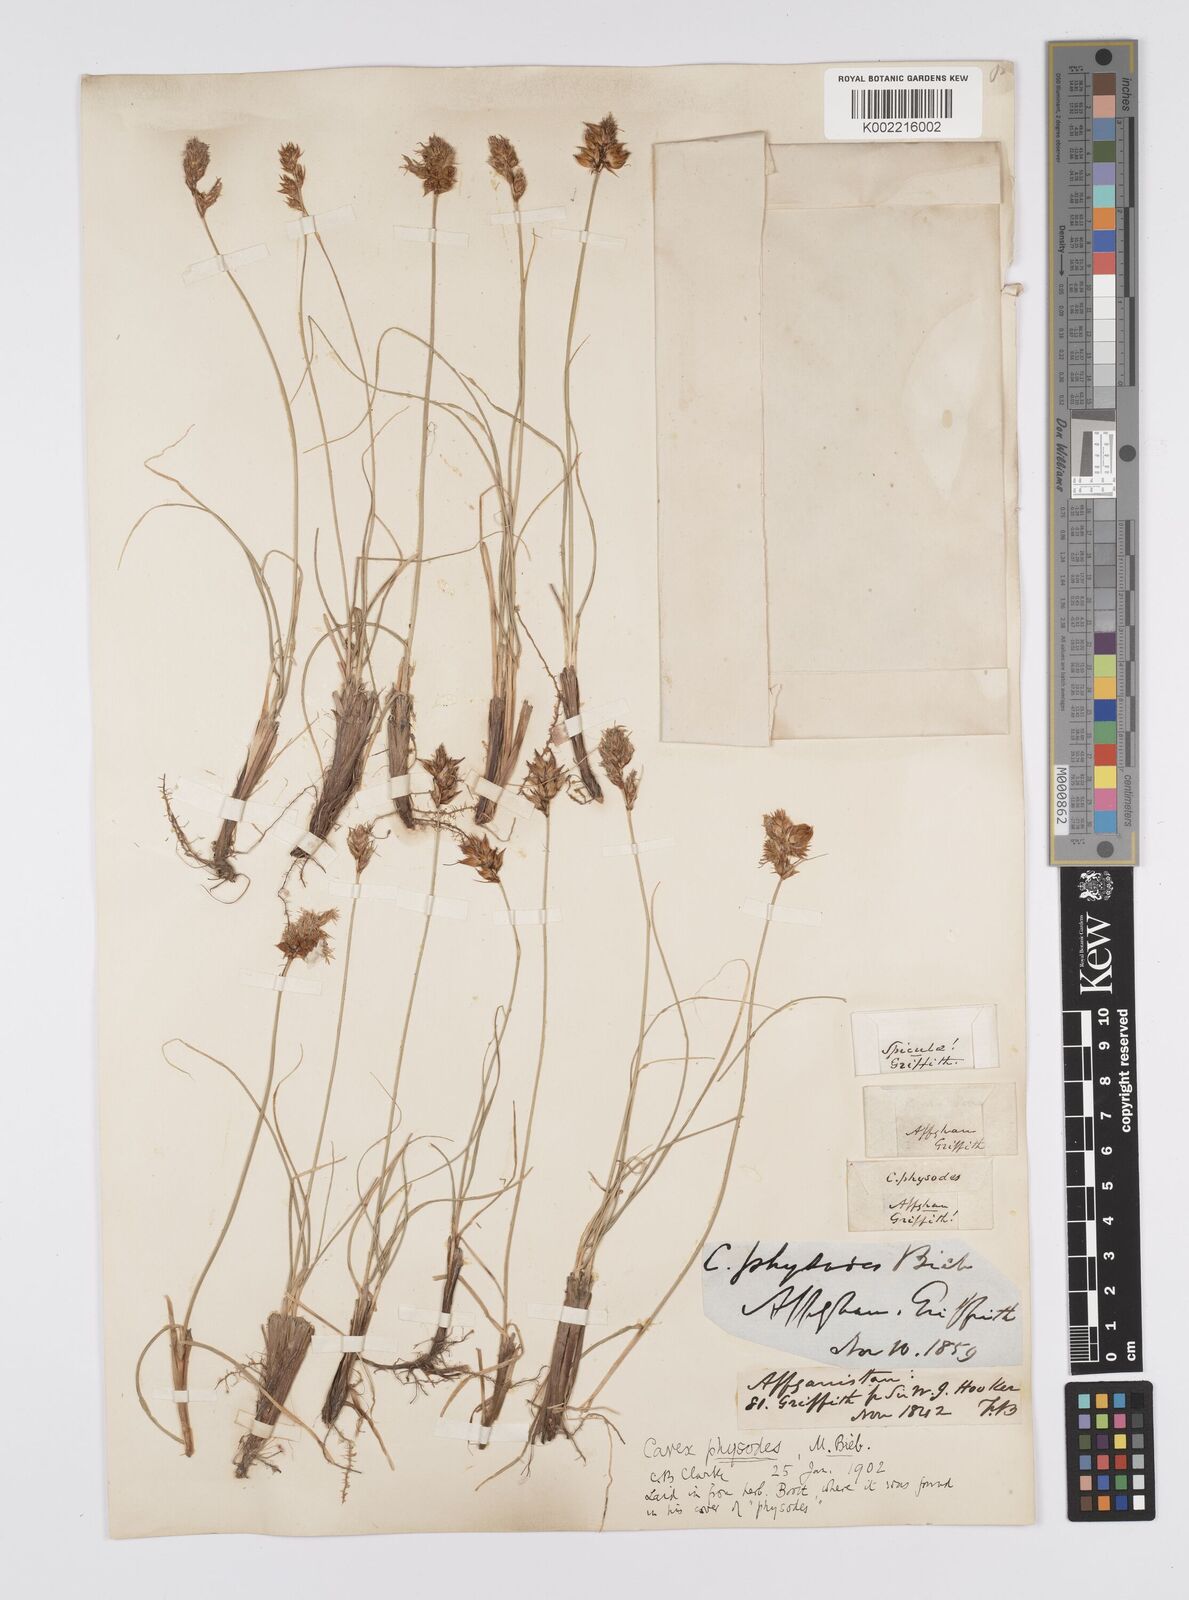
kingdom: Plantae
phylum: Tracheophyta
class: Liliopsida
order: Poales
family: Cyperaceae
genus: Carex
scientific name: Carex physodes
